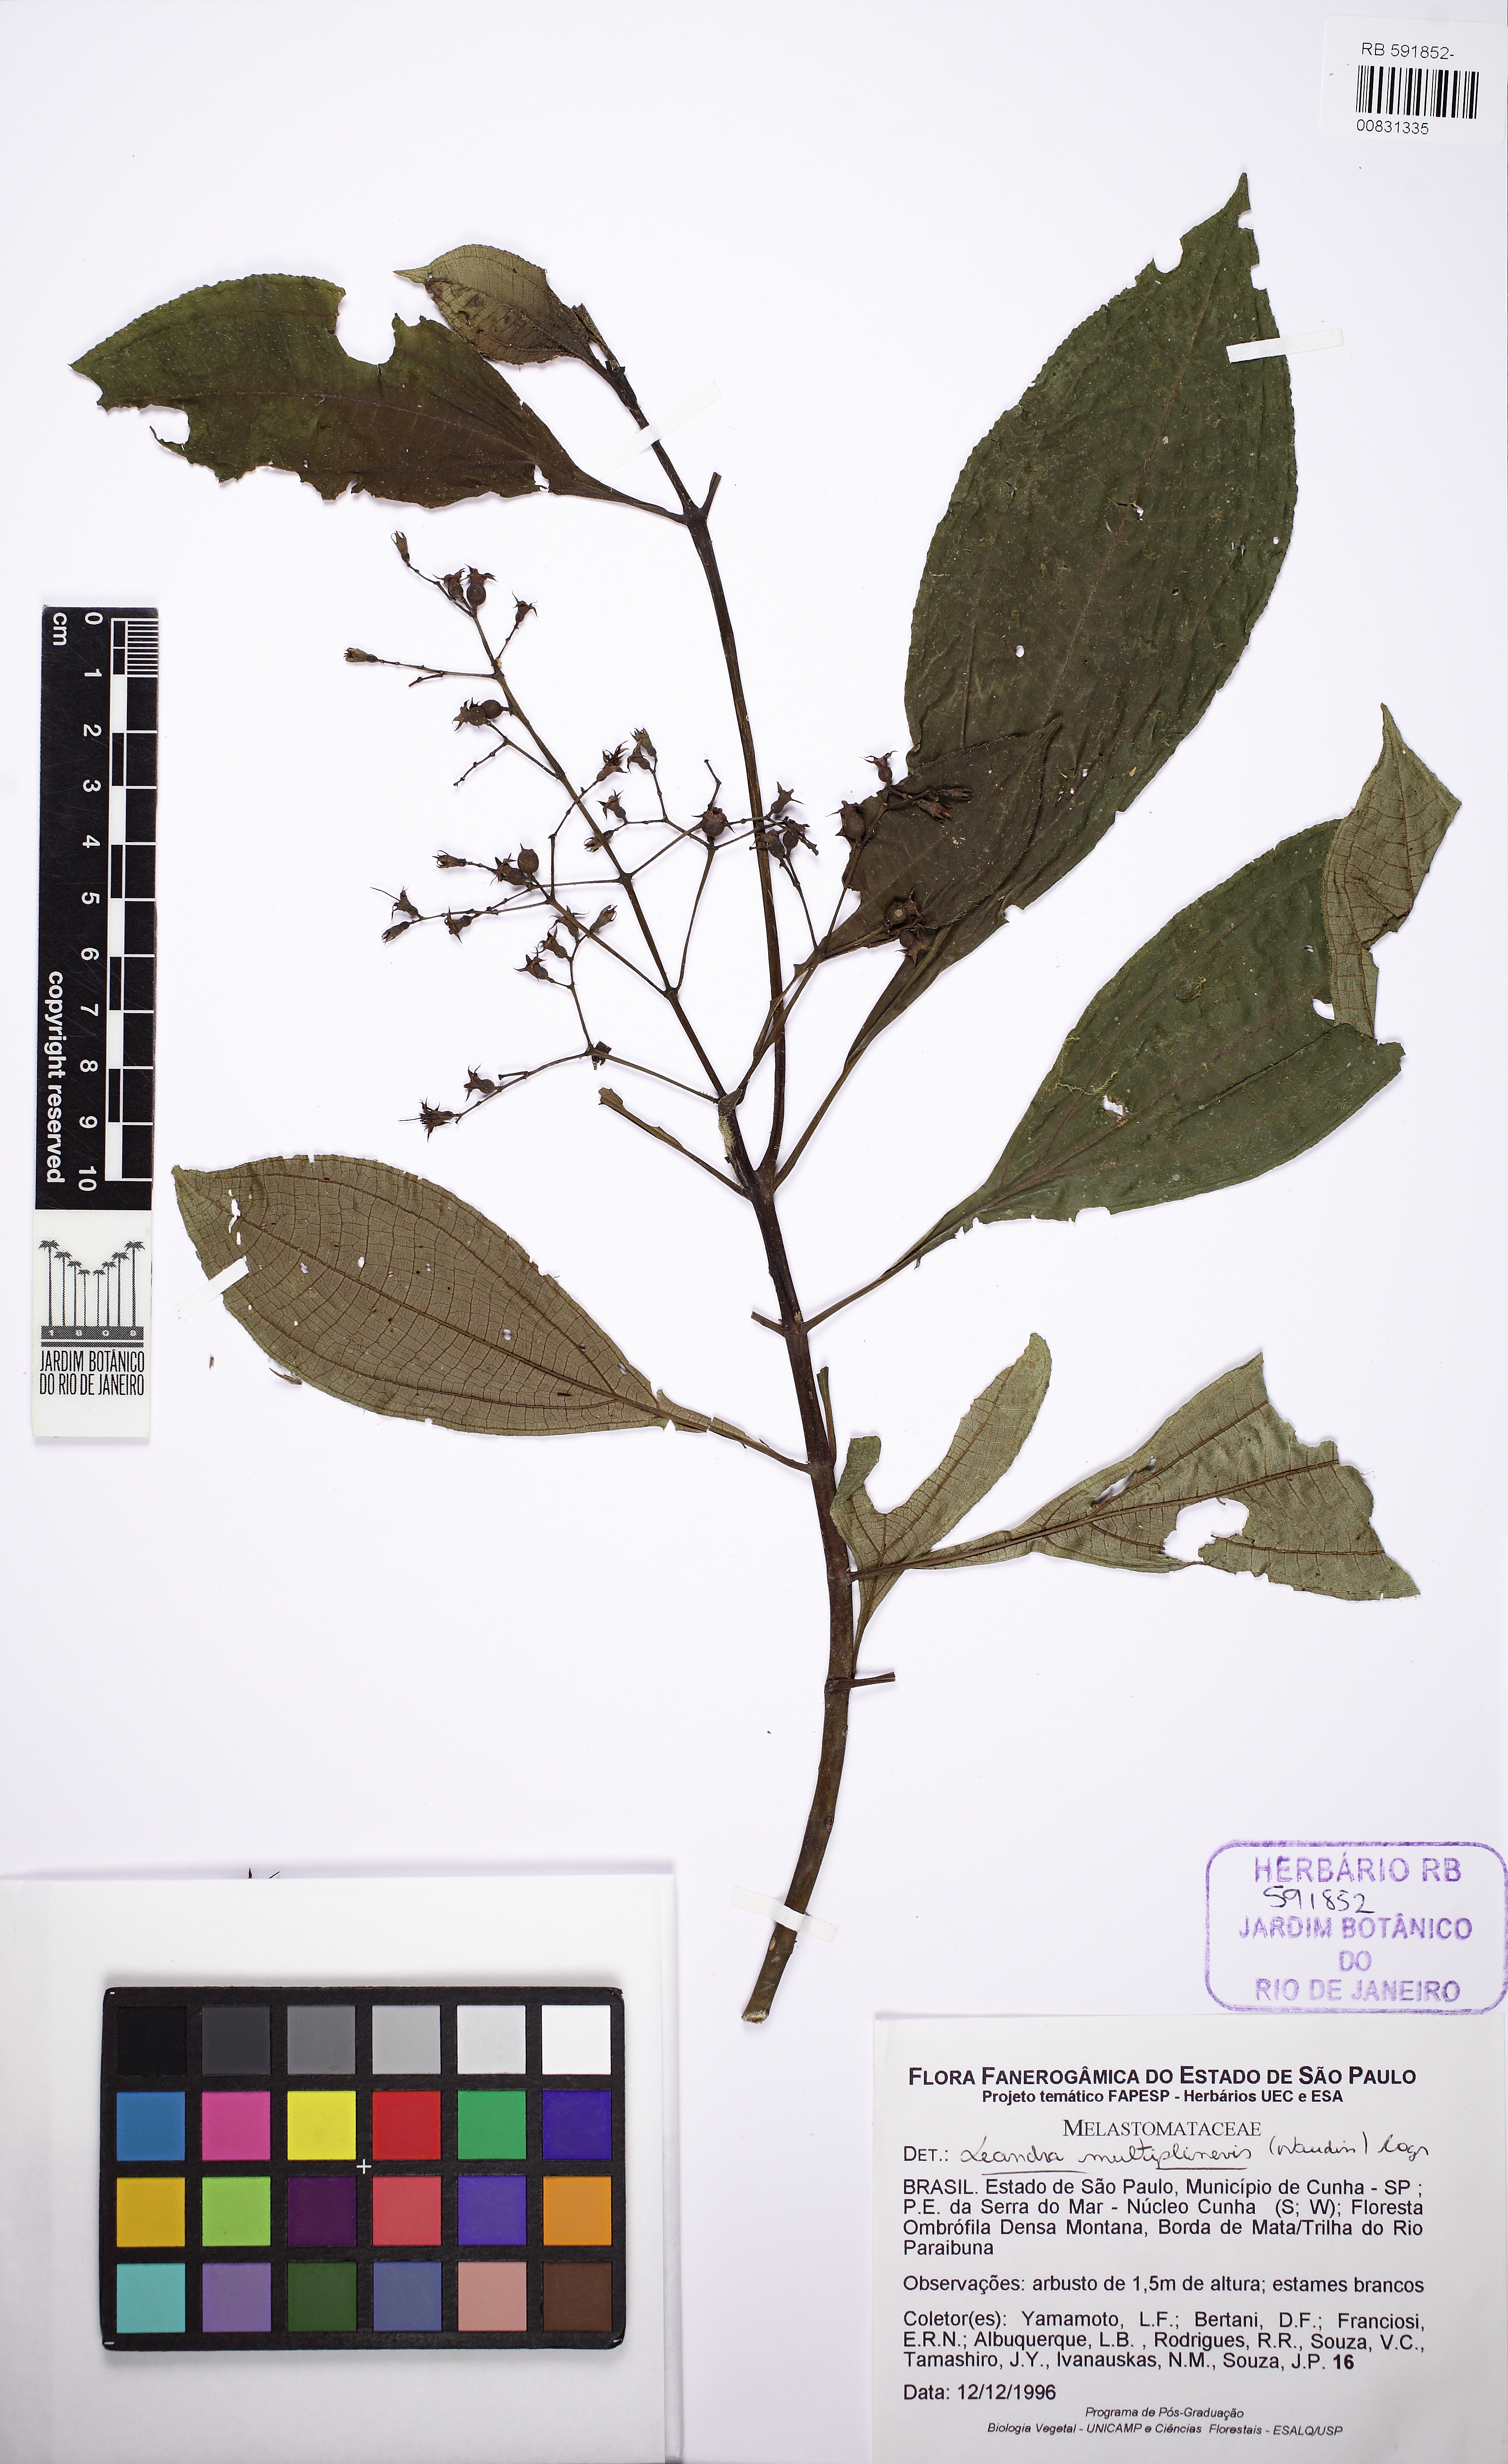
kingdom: Plantae
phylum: Tracheophyta
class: Magnoliopsida
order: Myrtales
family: Melastomataceae
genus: Miconia
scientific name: Miconia oocarpa
